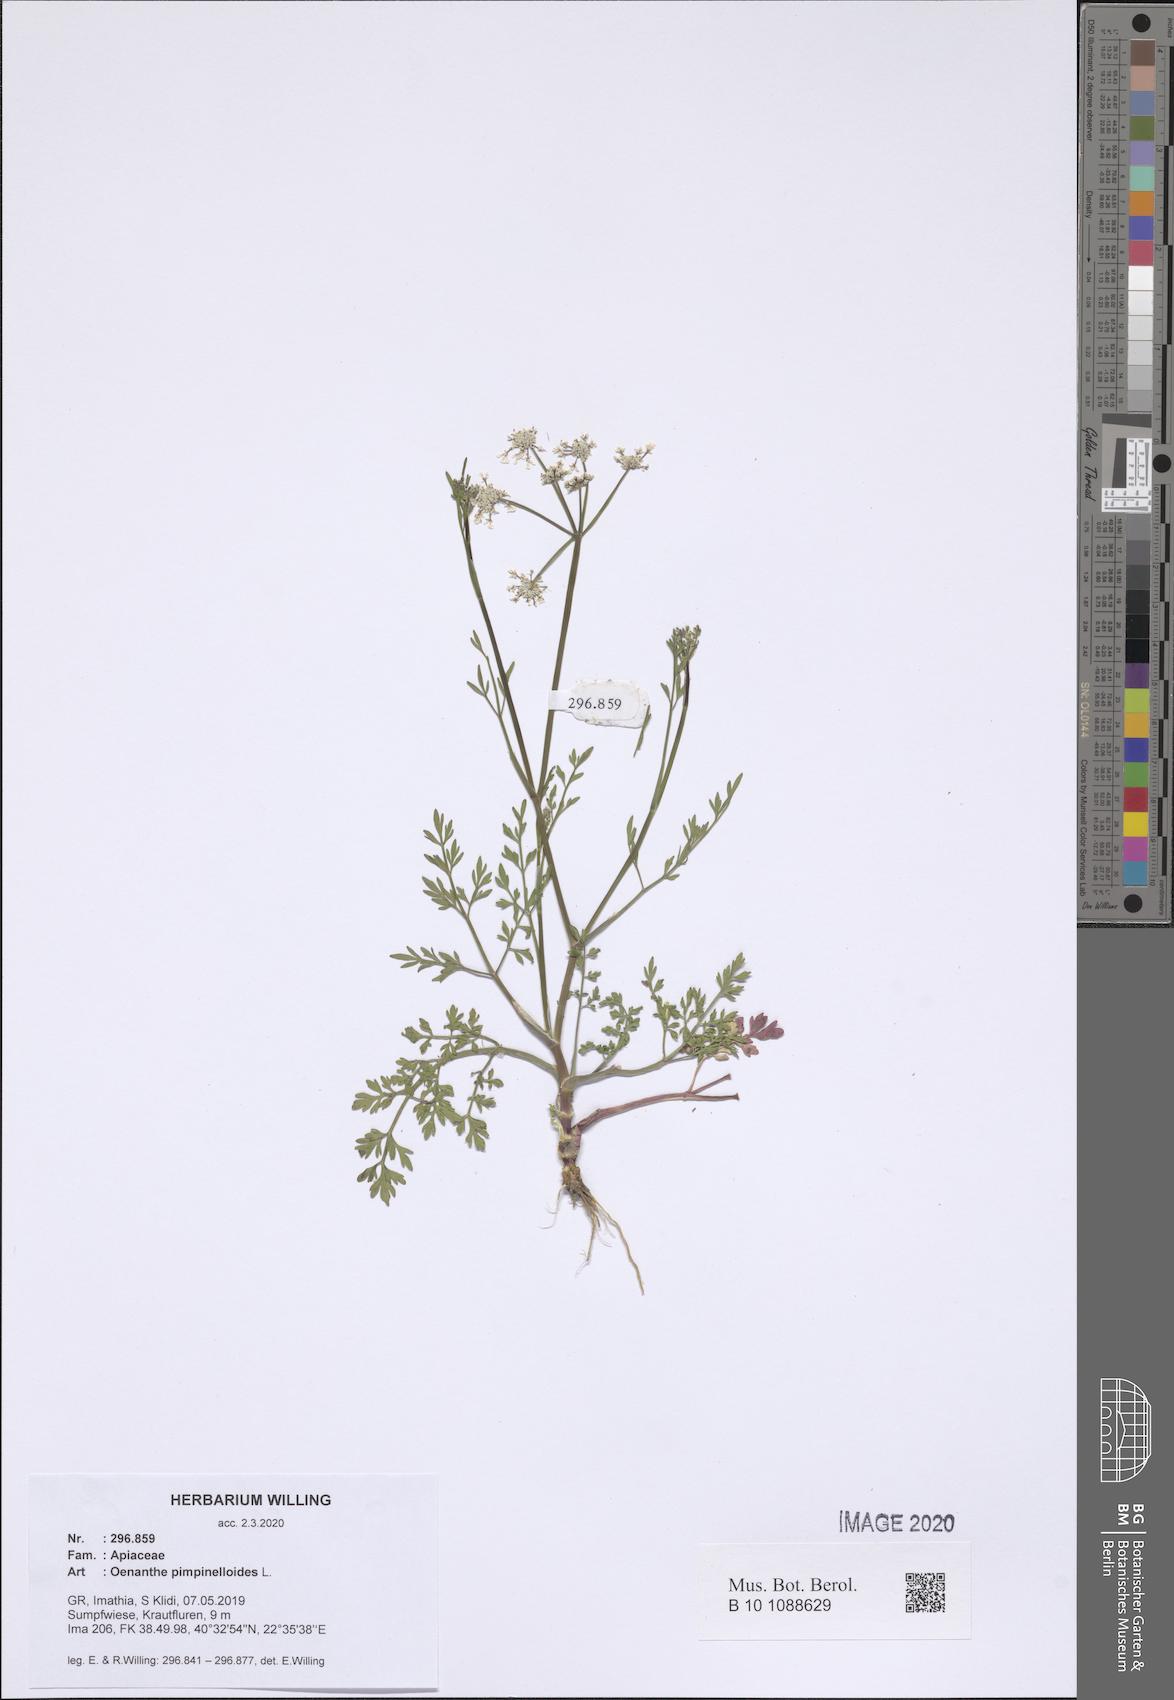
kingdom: Plantae
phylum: Tracheophyta
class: Magnoliopsida
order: Apiales
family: Apiaceae
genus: Oenanthe
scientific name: Oenanthe pimpinelloides
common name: Corky-fruited water-dropwort
